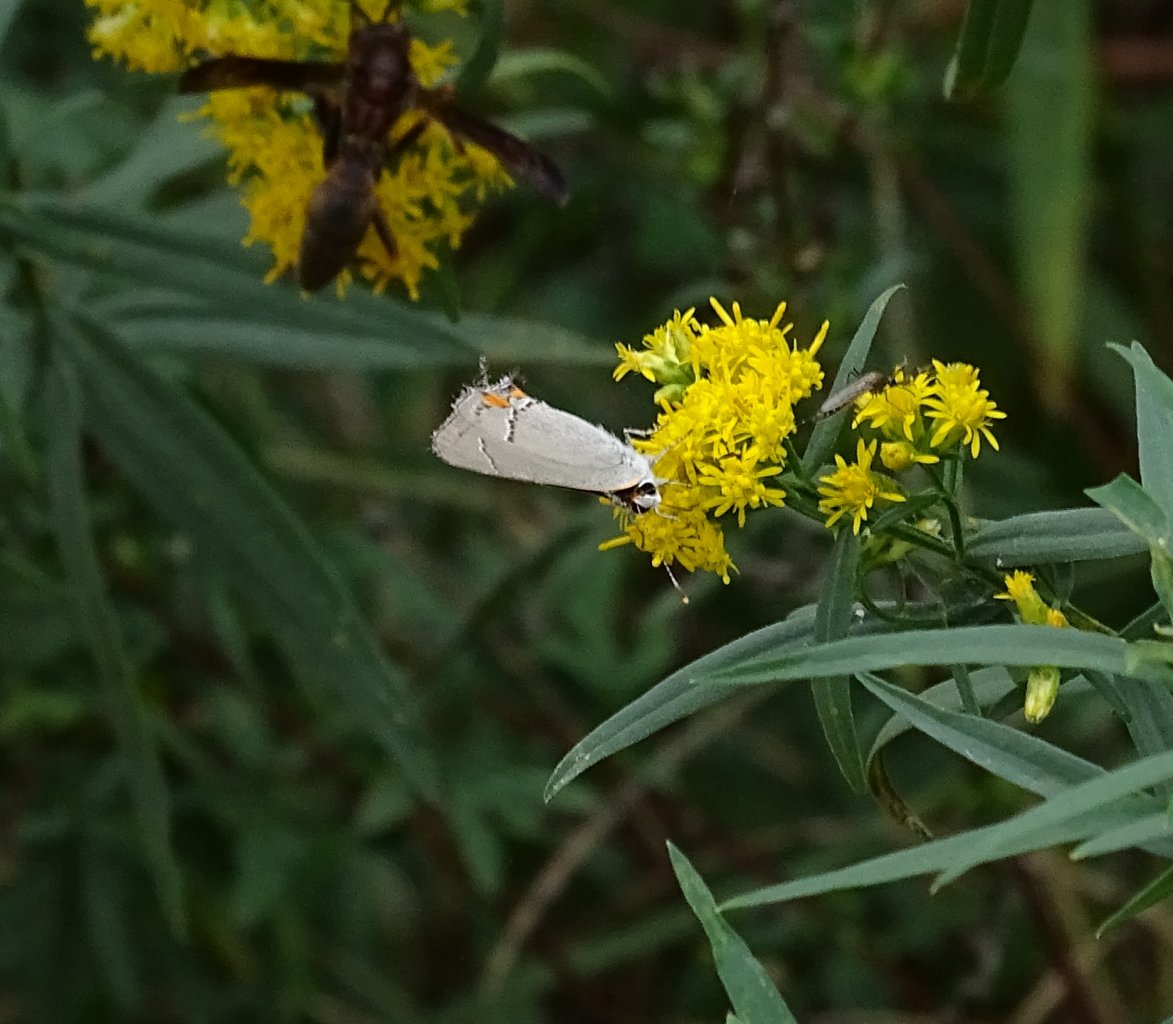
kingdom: Animalia
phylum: Arthropoda
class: Insecta
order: Lepidoptera
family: Lycaenidae
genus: Strymon
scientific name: Strymon melinus
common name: Gray Hairstreak
